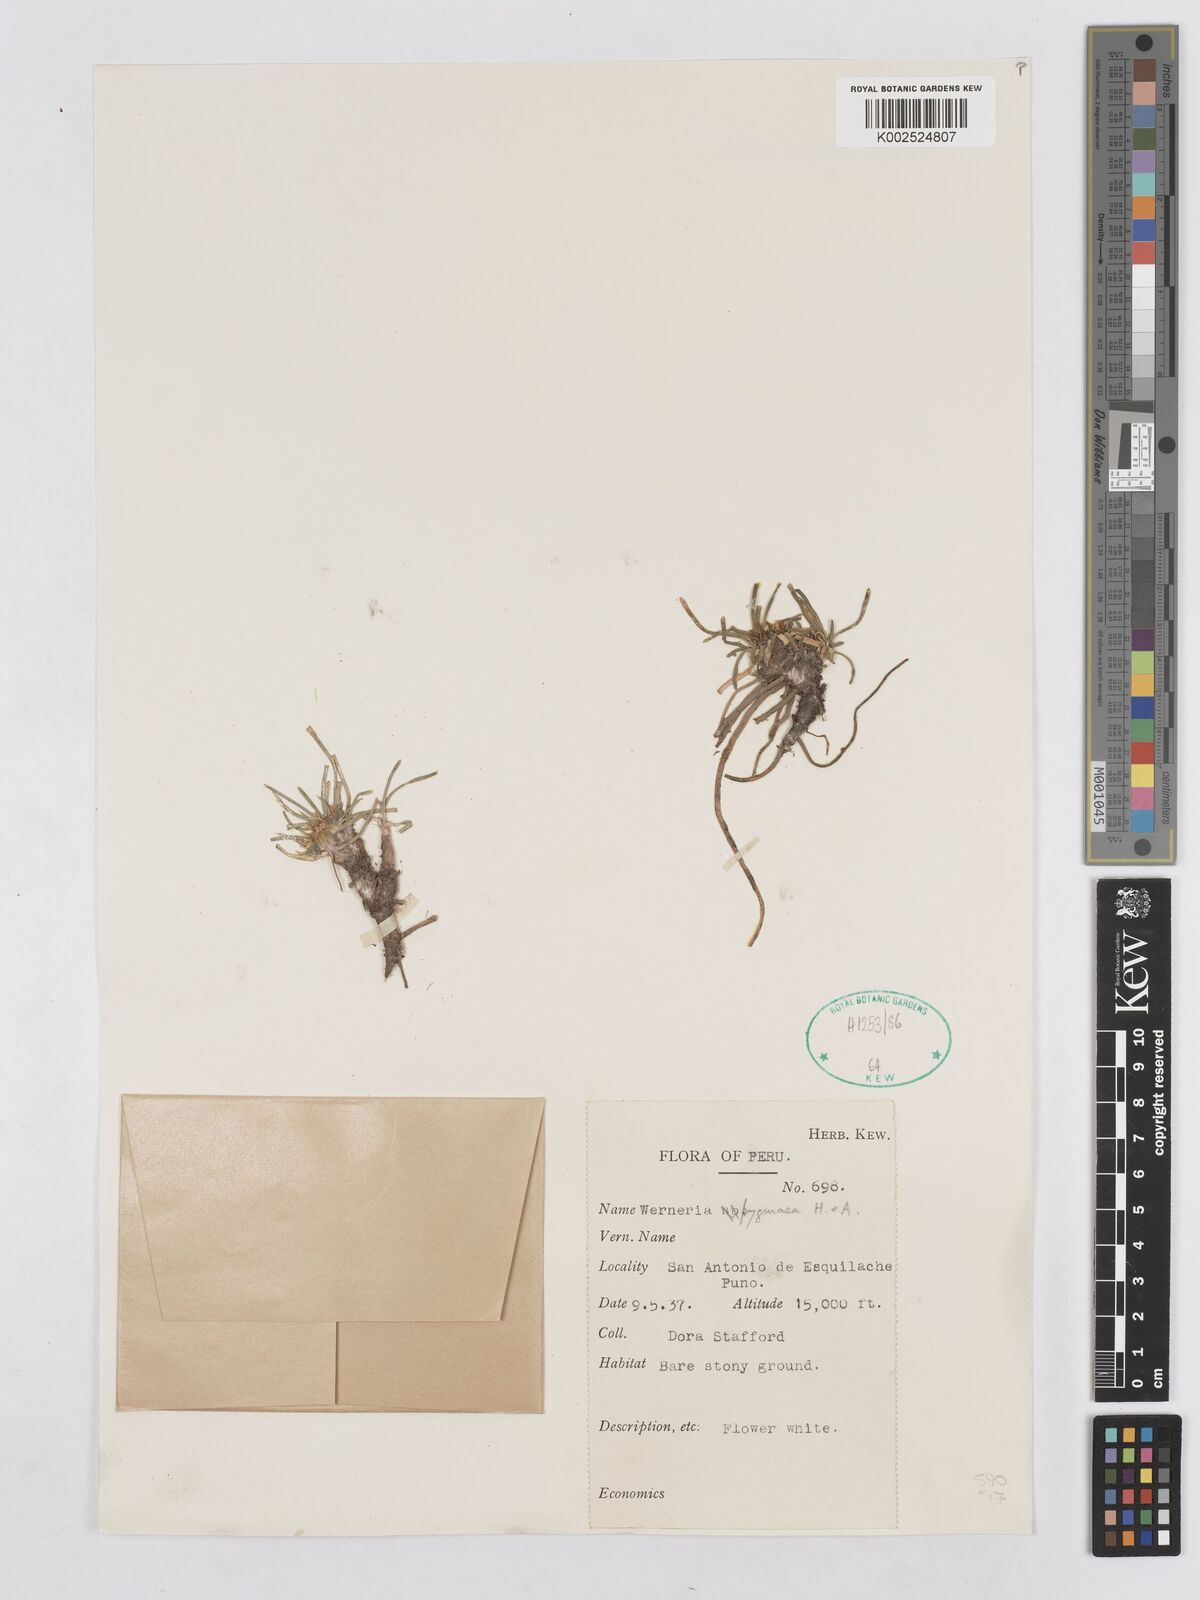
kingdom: Plantae
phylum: Tracheophyta
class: Magnoliopsida
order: Asterales
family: Asteraceae
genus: Rockhausenia
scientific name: Rockhausenia pygmaea
